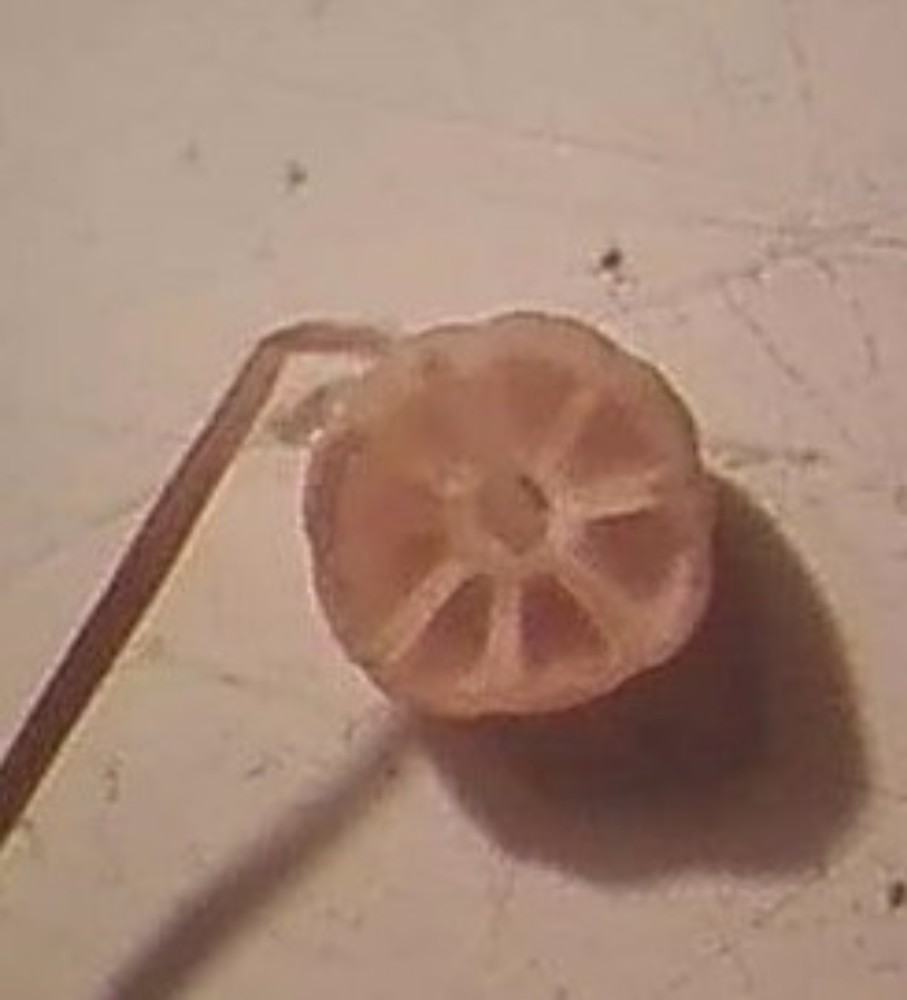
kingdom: Fungi
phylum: Basidiomycota
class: Agaricomycetes
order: Agaricales
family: Marasmiaceae
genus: Marasmius
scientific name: Marasmius limosus
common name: kær-bruskhat
